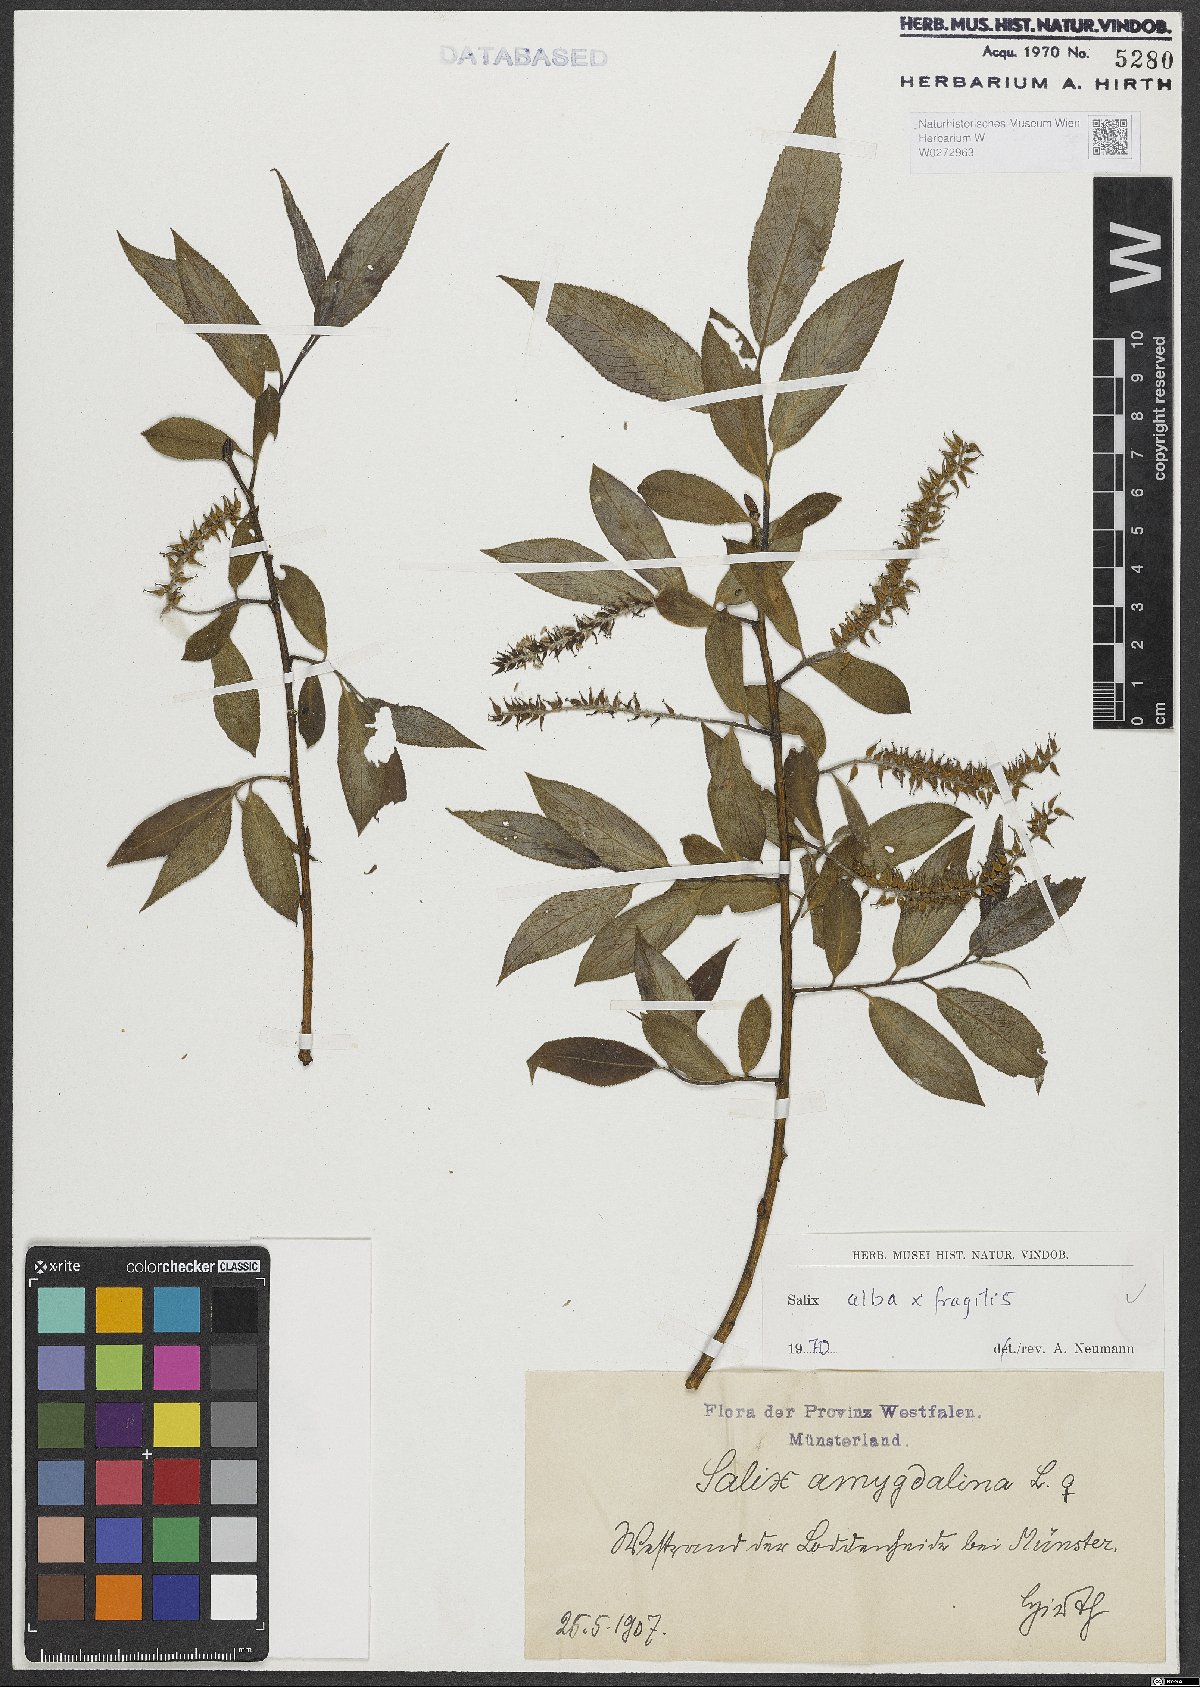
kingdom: Plantae
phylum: Tracheophyta
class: Magnoliopsida
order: Malpighiales
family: Salicaceae
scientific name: Salicaceae
